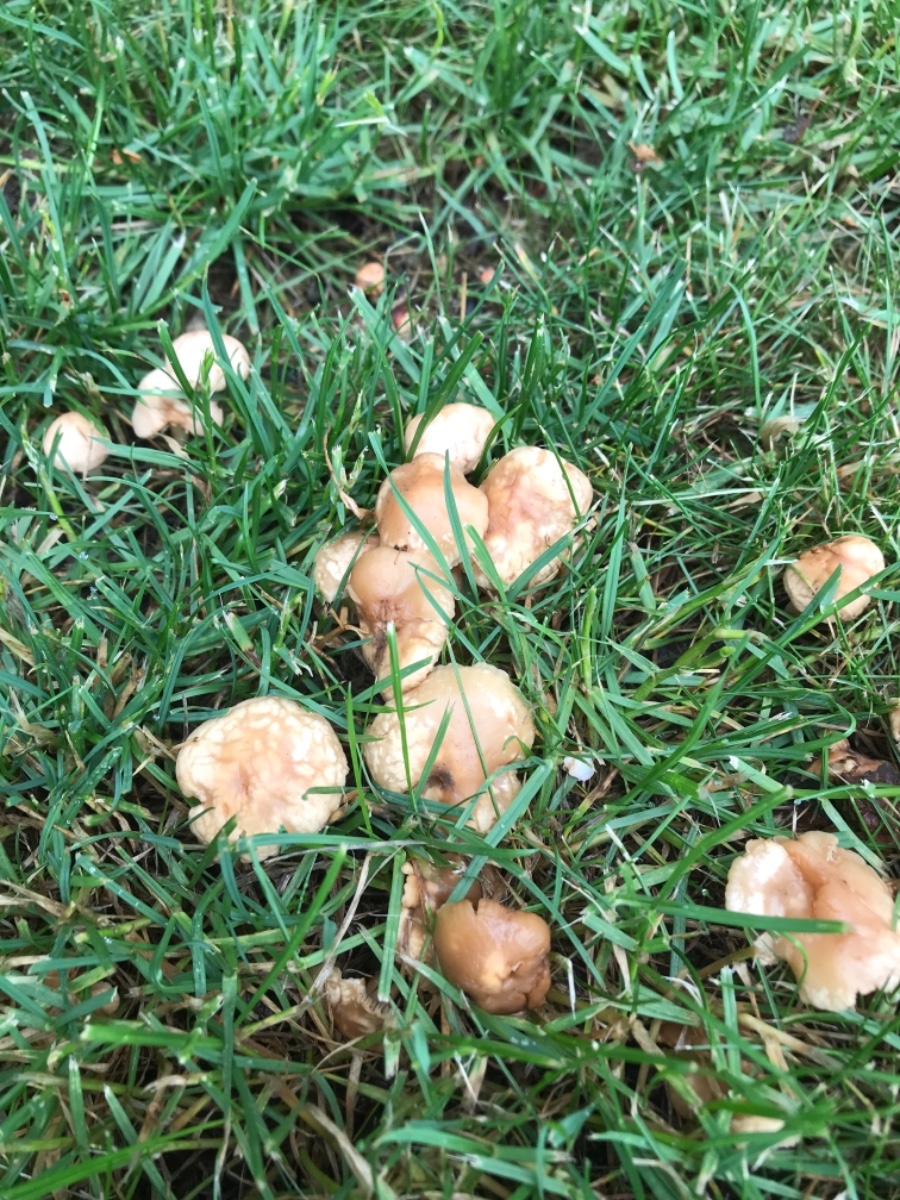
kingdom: Fungi
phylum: Basidiomycota
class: Agaricomycetes
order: Agaricales
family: Marasmiaceae
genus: Marasmius
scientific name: Marasmius oreades
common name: elledans-bruskhat
